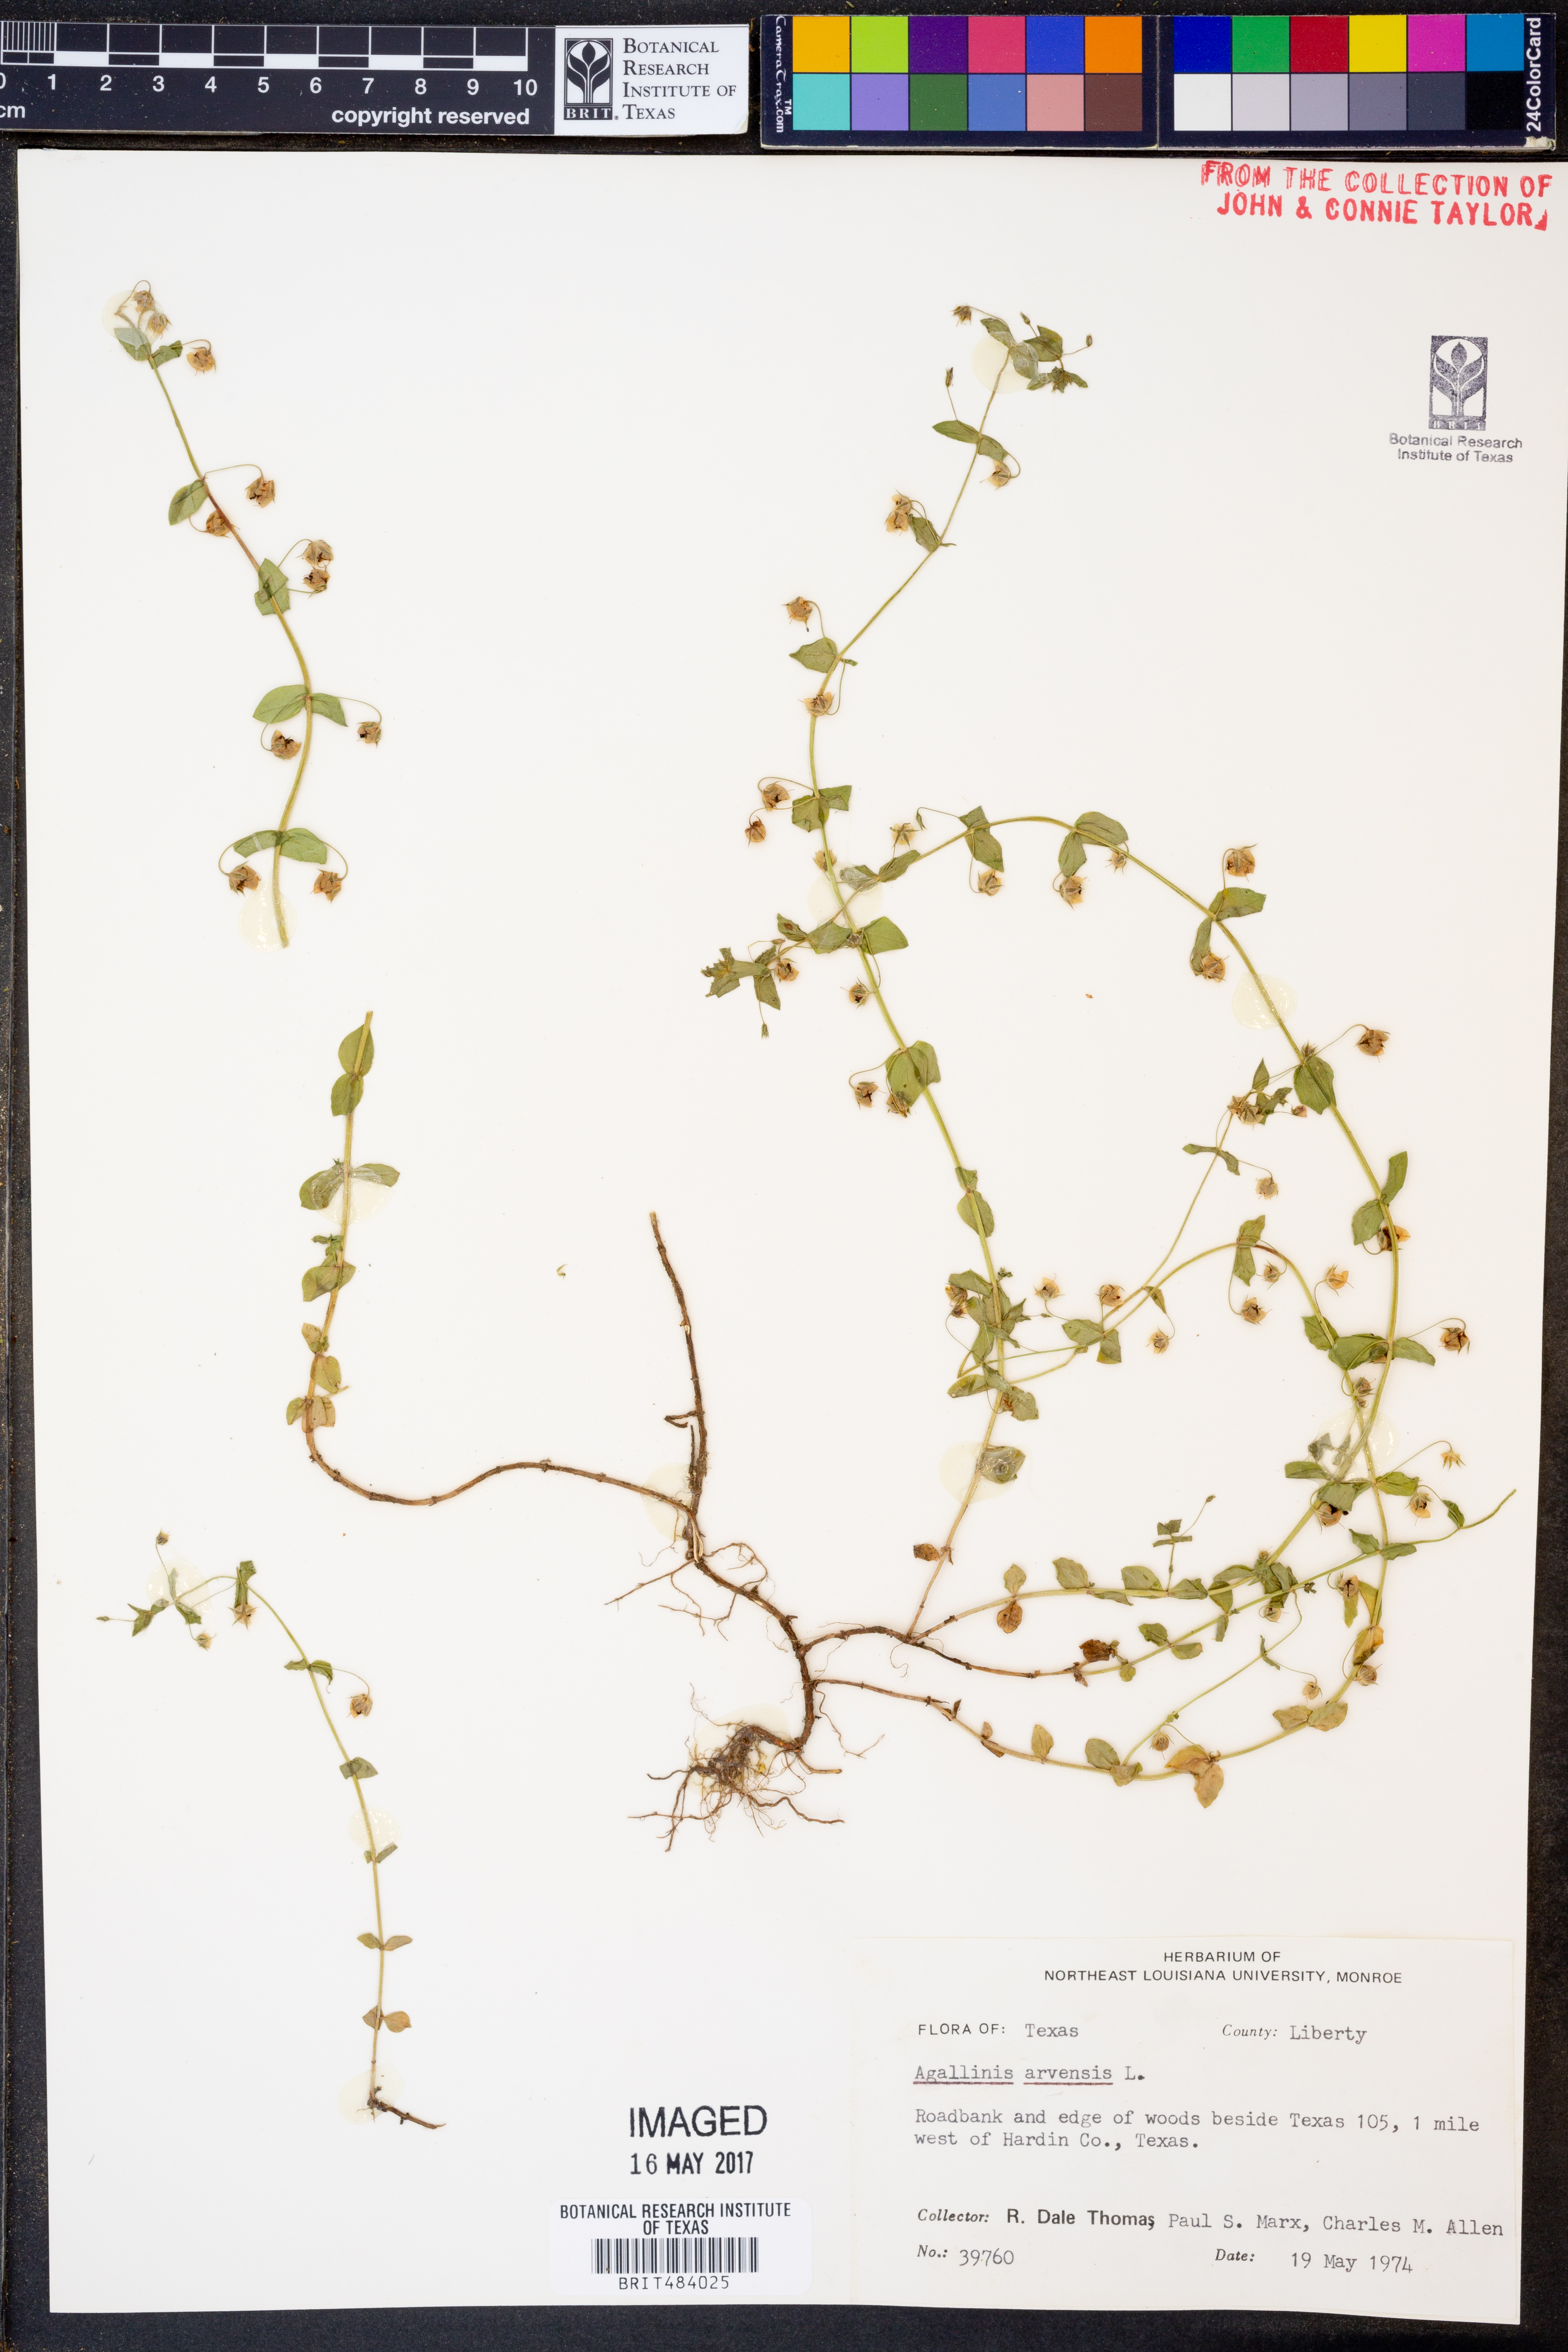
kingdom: Plantae
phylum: Tracheophyta
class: Magnoliopsida
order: Lamiales
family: Orobanchaceae
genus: Agalinis
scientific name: Agalinis
